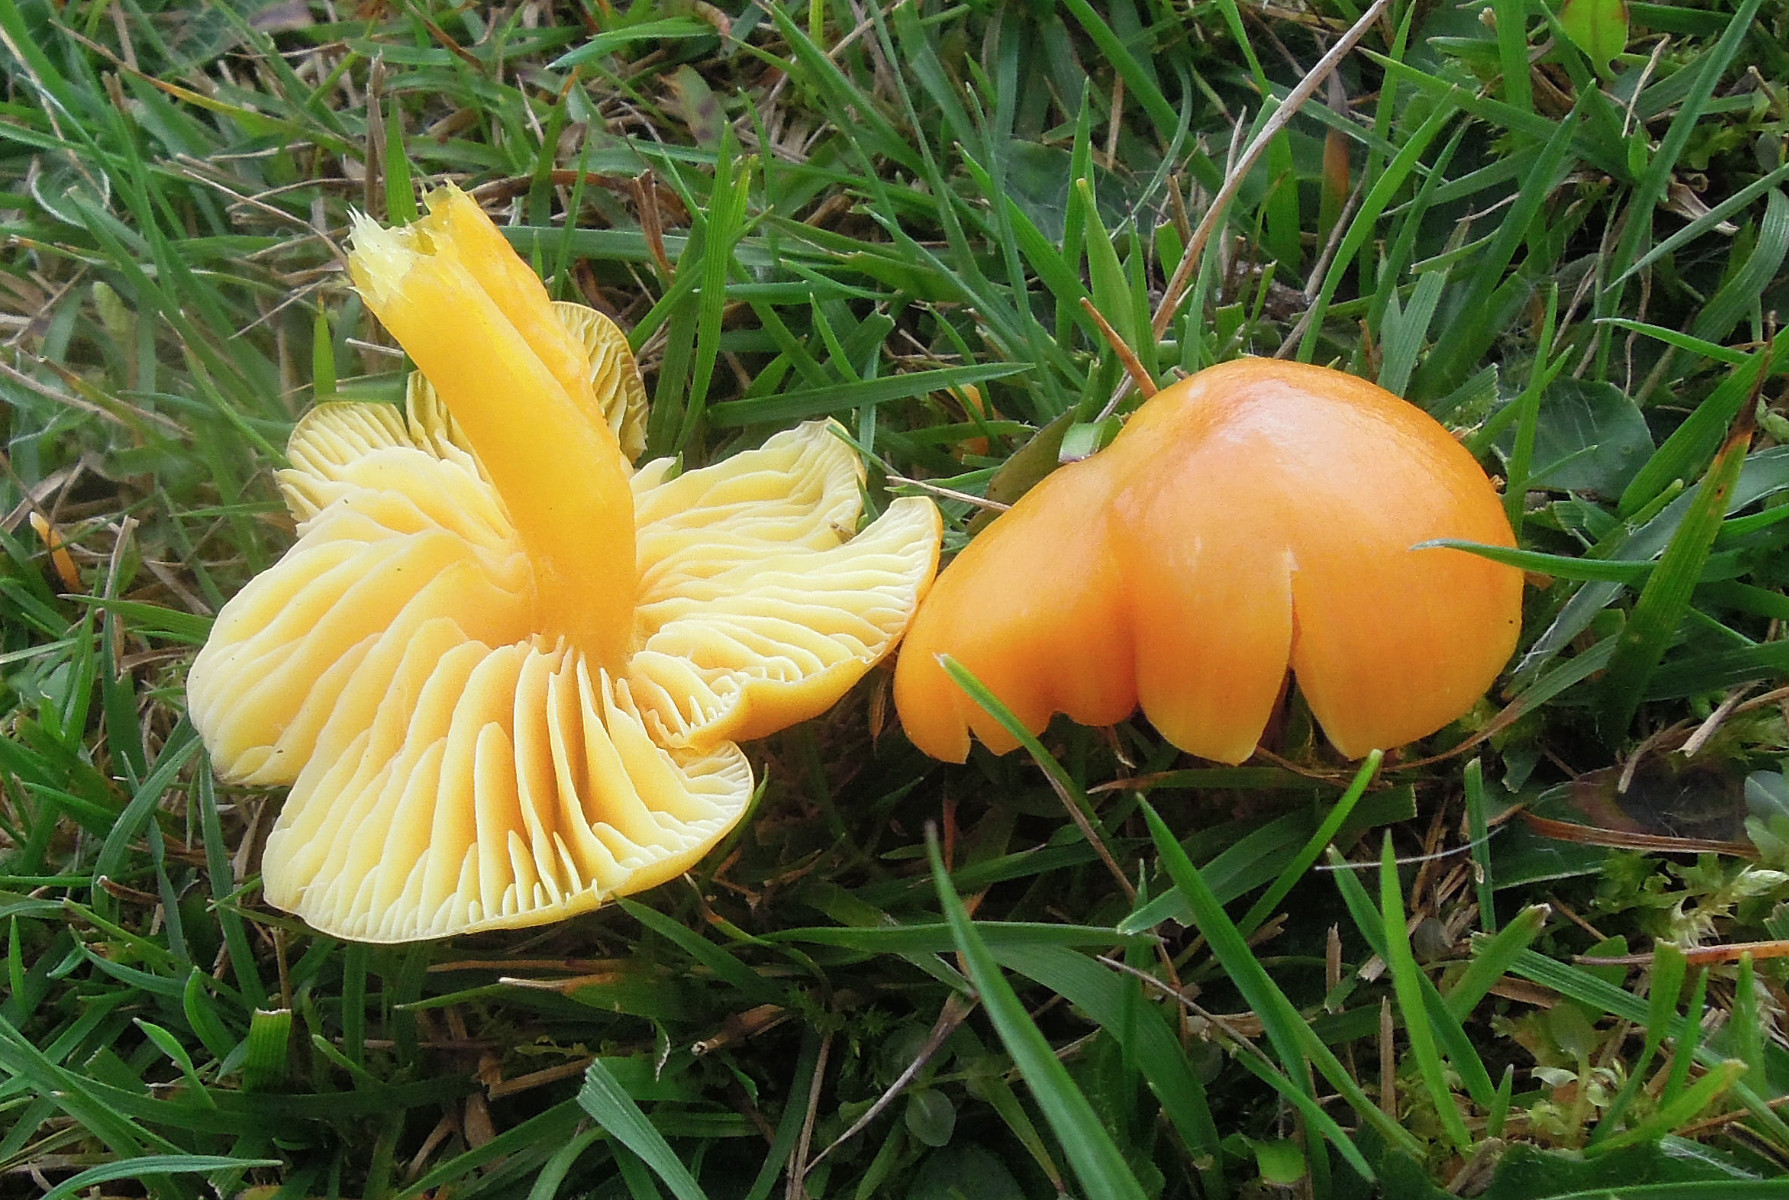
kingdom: Fungi
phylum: Basidiomycota
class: Agaricomycetes
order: Agaricales
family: Hygrophoraceae
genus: Hygrocybe
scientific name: Hygrocybe chlorophana
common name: gul vokshat
